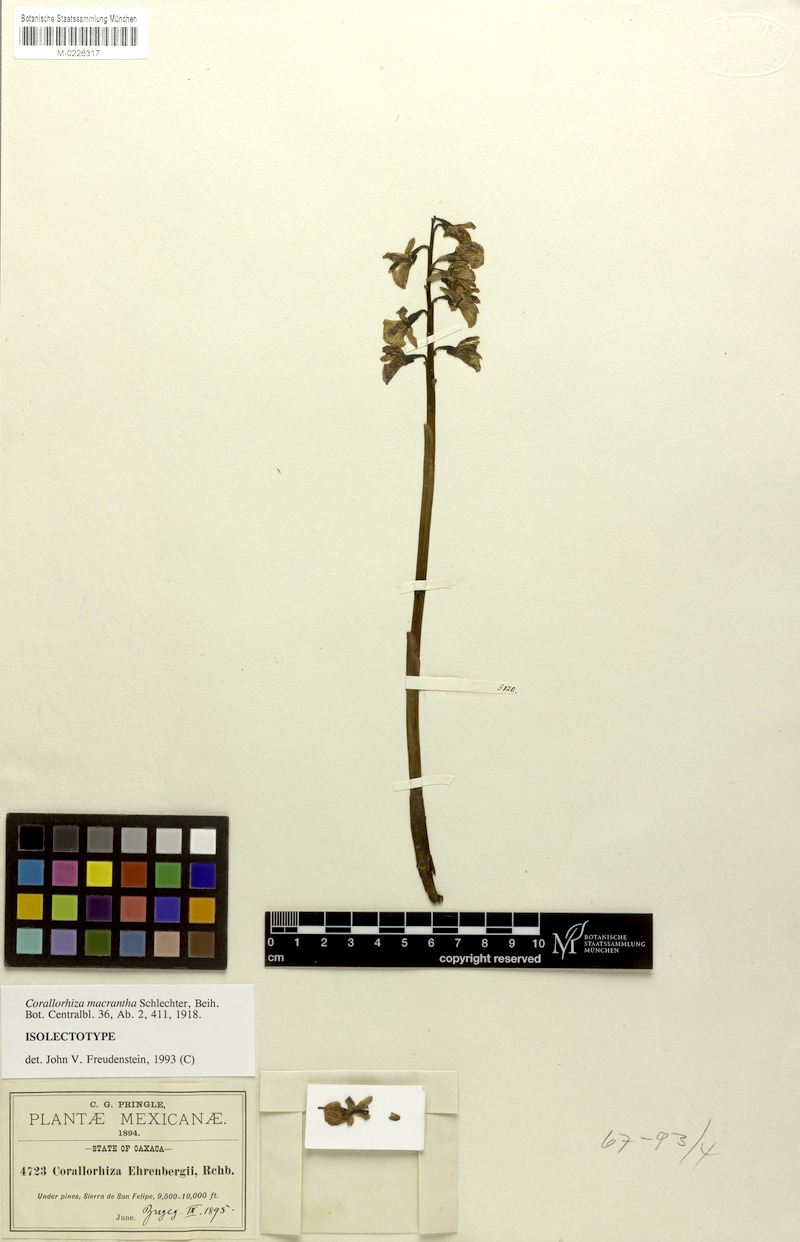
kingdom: Plantae
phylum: Tracheophyta
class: Liliopsida
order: Asparagales
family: Orchidaceae
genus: Corallorhiza
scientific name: Corallorhiza macrantha
